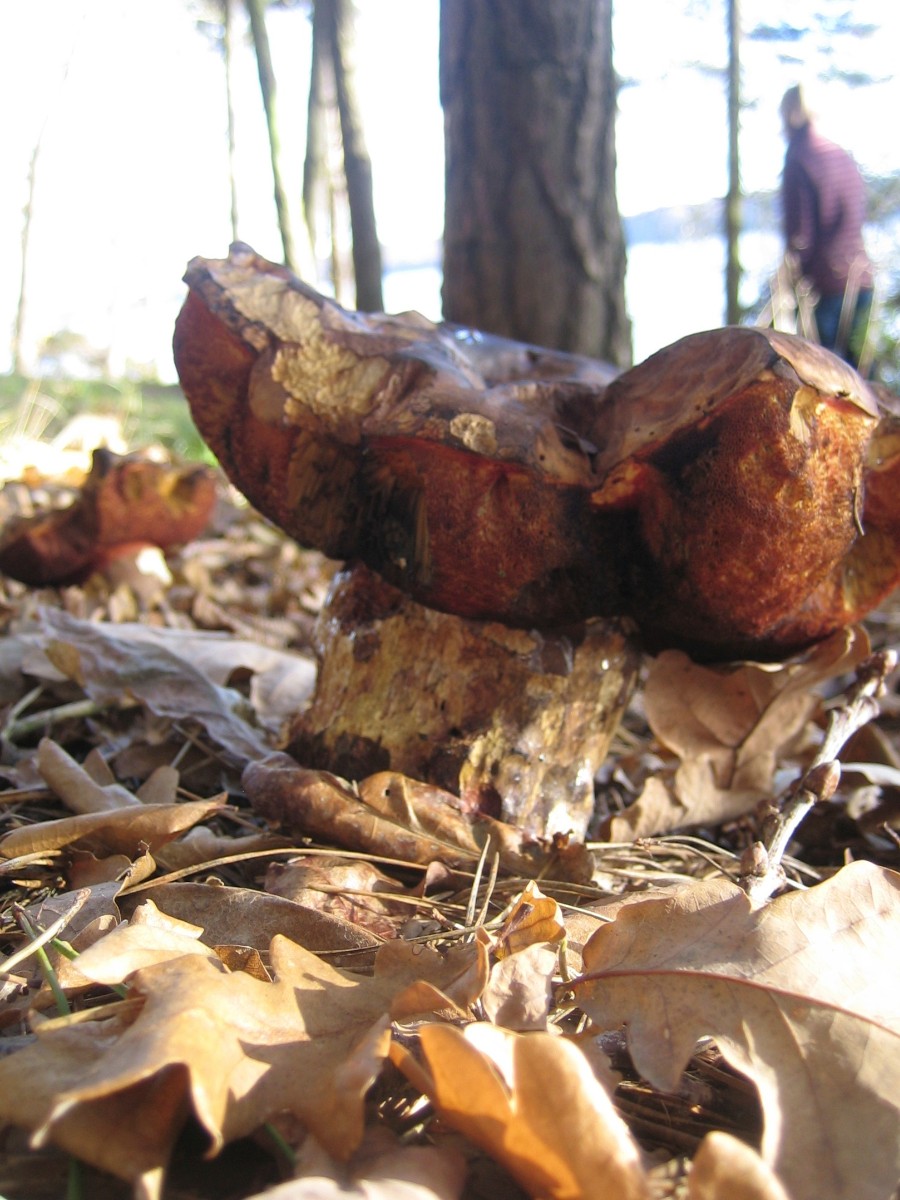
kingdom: Fungi
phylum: Basidiomycota
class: Agaricomycetes
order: Boletales
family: Boletaceae
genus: Neoboletus
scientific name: Neoboletus erythropus
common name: punktstokket indigorørhat
